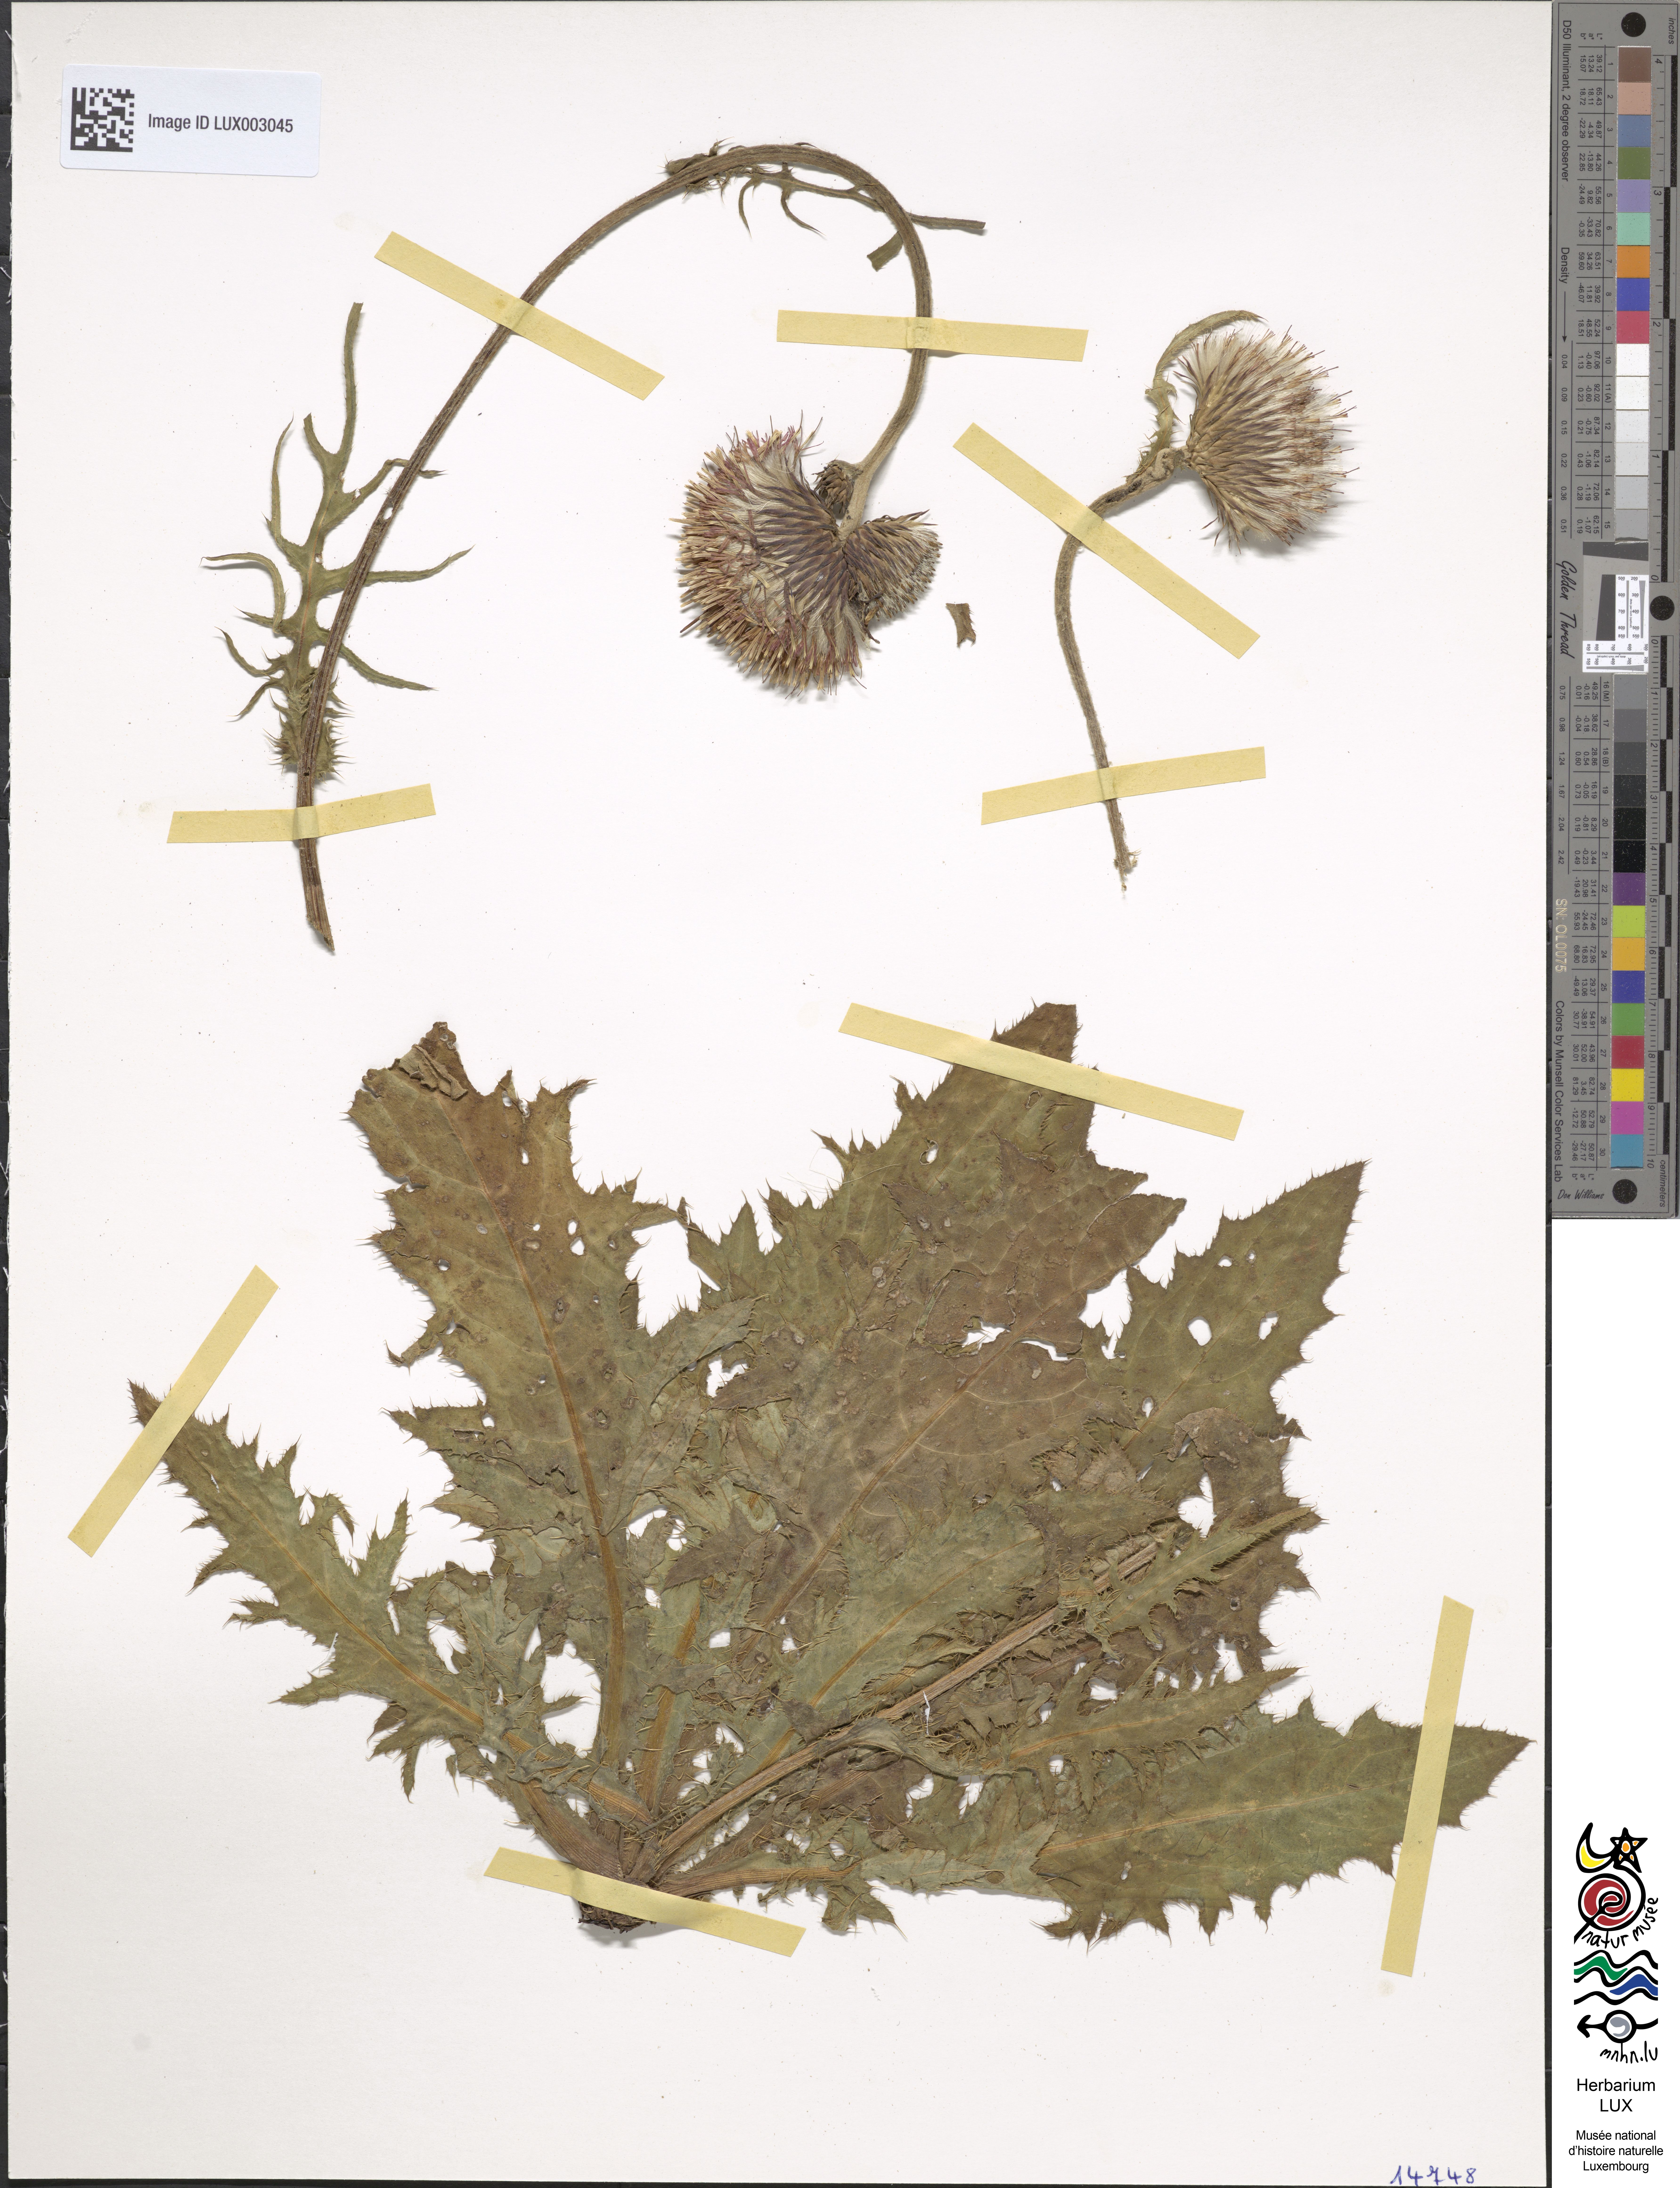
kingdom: Plantae
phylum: Tracheophyta
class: Magnoliopsida
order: Asterales
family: Asteraceae
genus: Cirsium
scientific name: Cirsium rivulare
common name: Brook thistle
